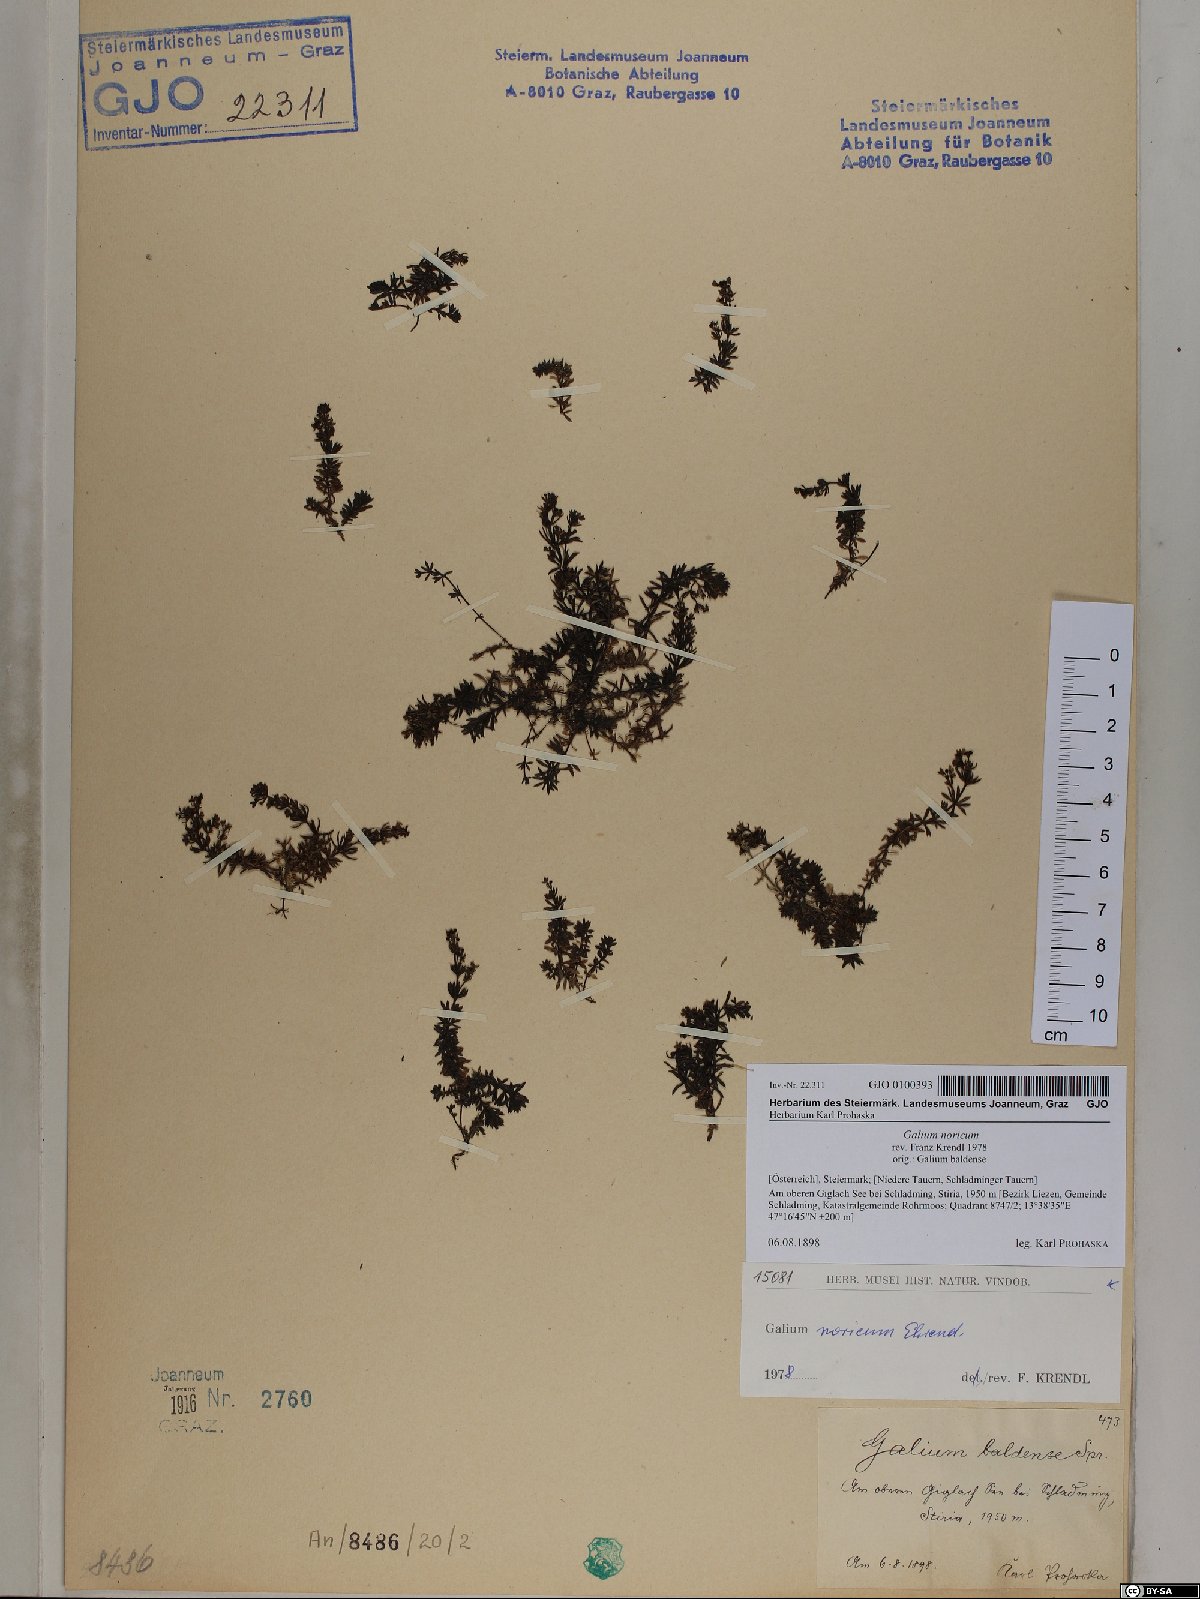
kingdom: Plantae
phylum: Tracheophyta
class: Magnoliopsida
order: Gentianales
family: Rubiaceae
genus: Galium
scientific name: Galium noricum
